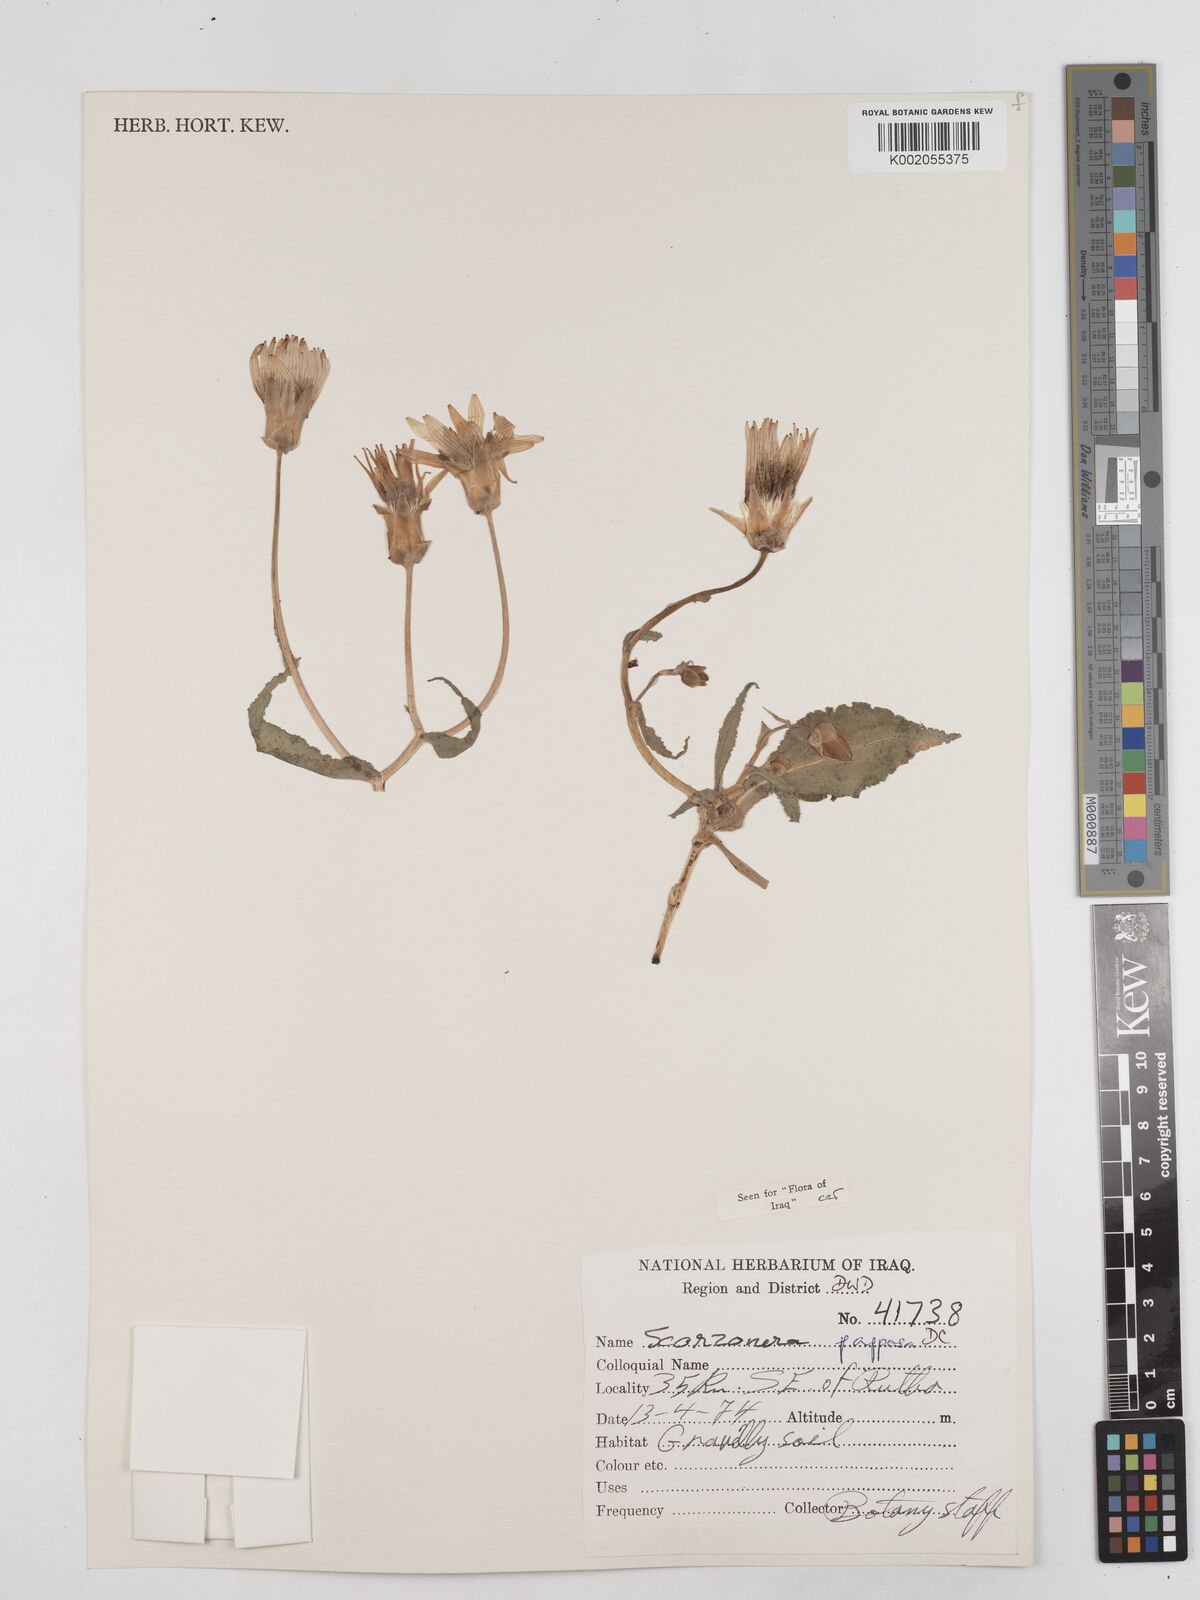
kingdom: Plantae
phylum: Tracheophyta
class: Magnoliopsida
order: Asterales
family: Asteraceae
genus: Pseudopodospermum
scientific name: Pseudopodospermum papposum
